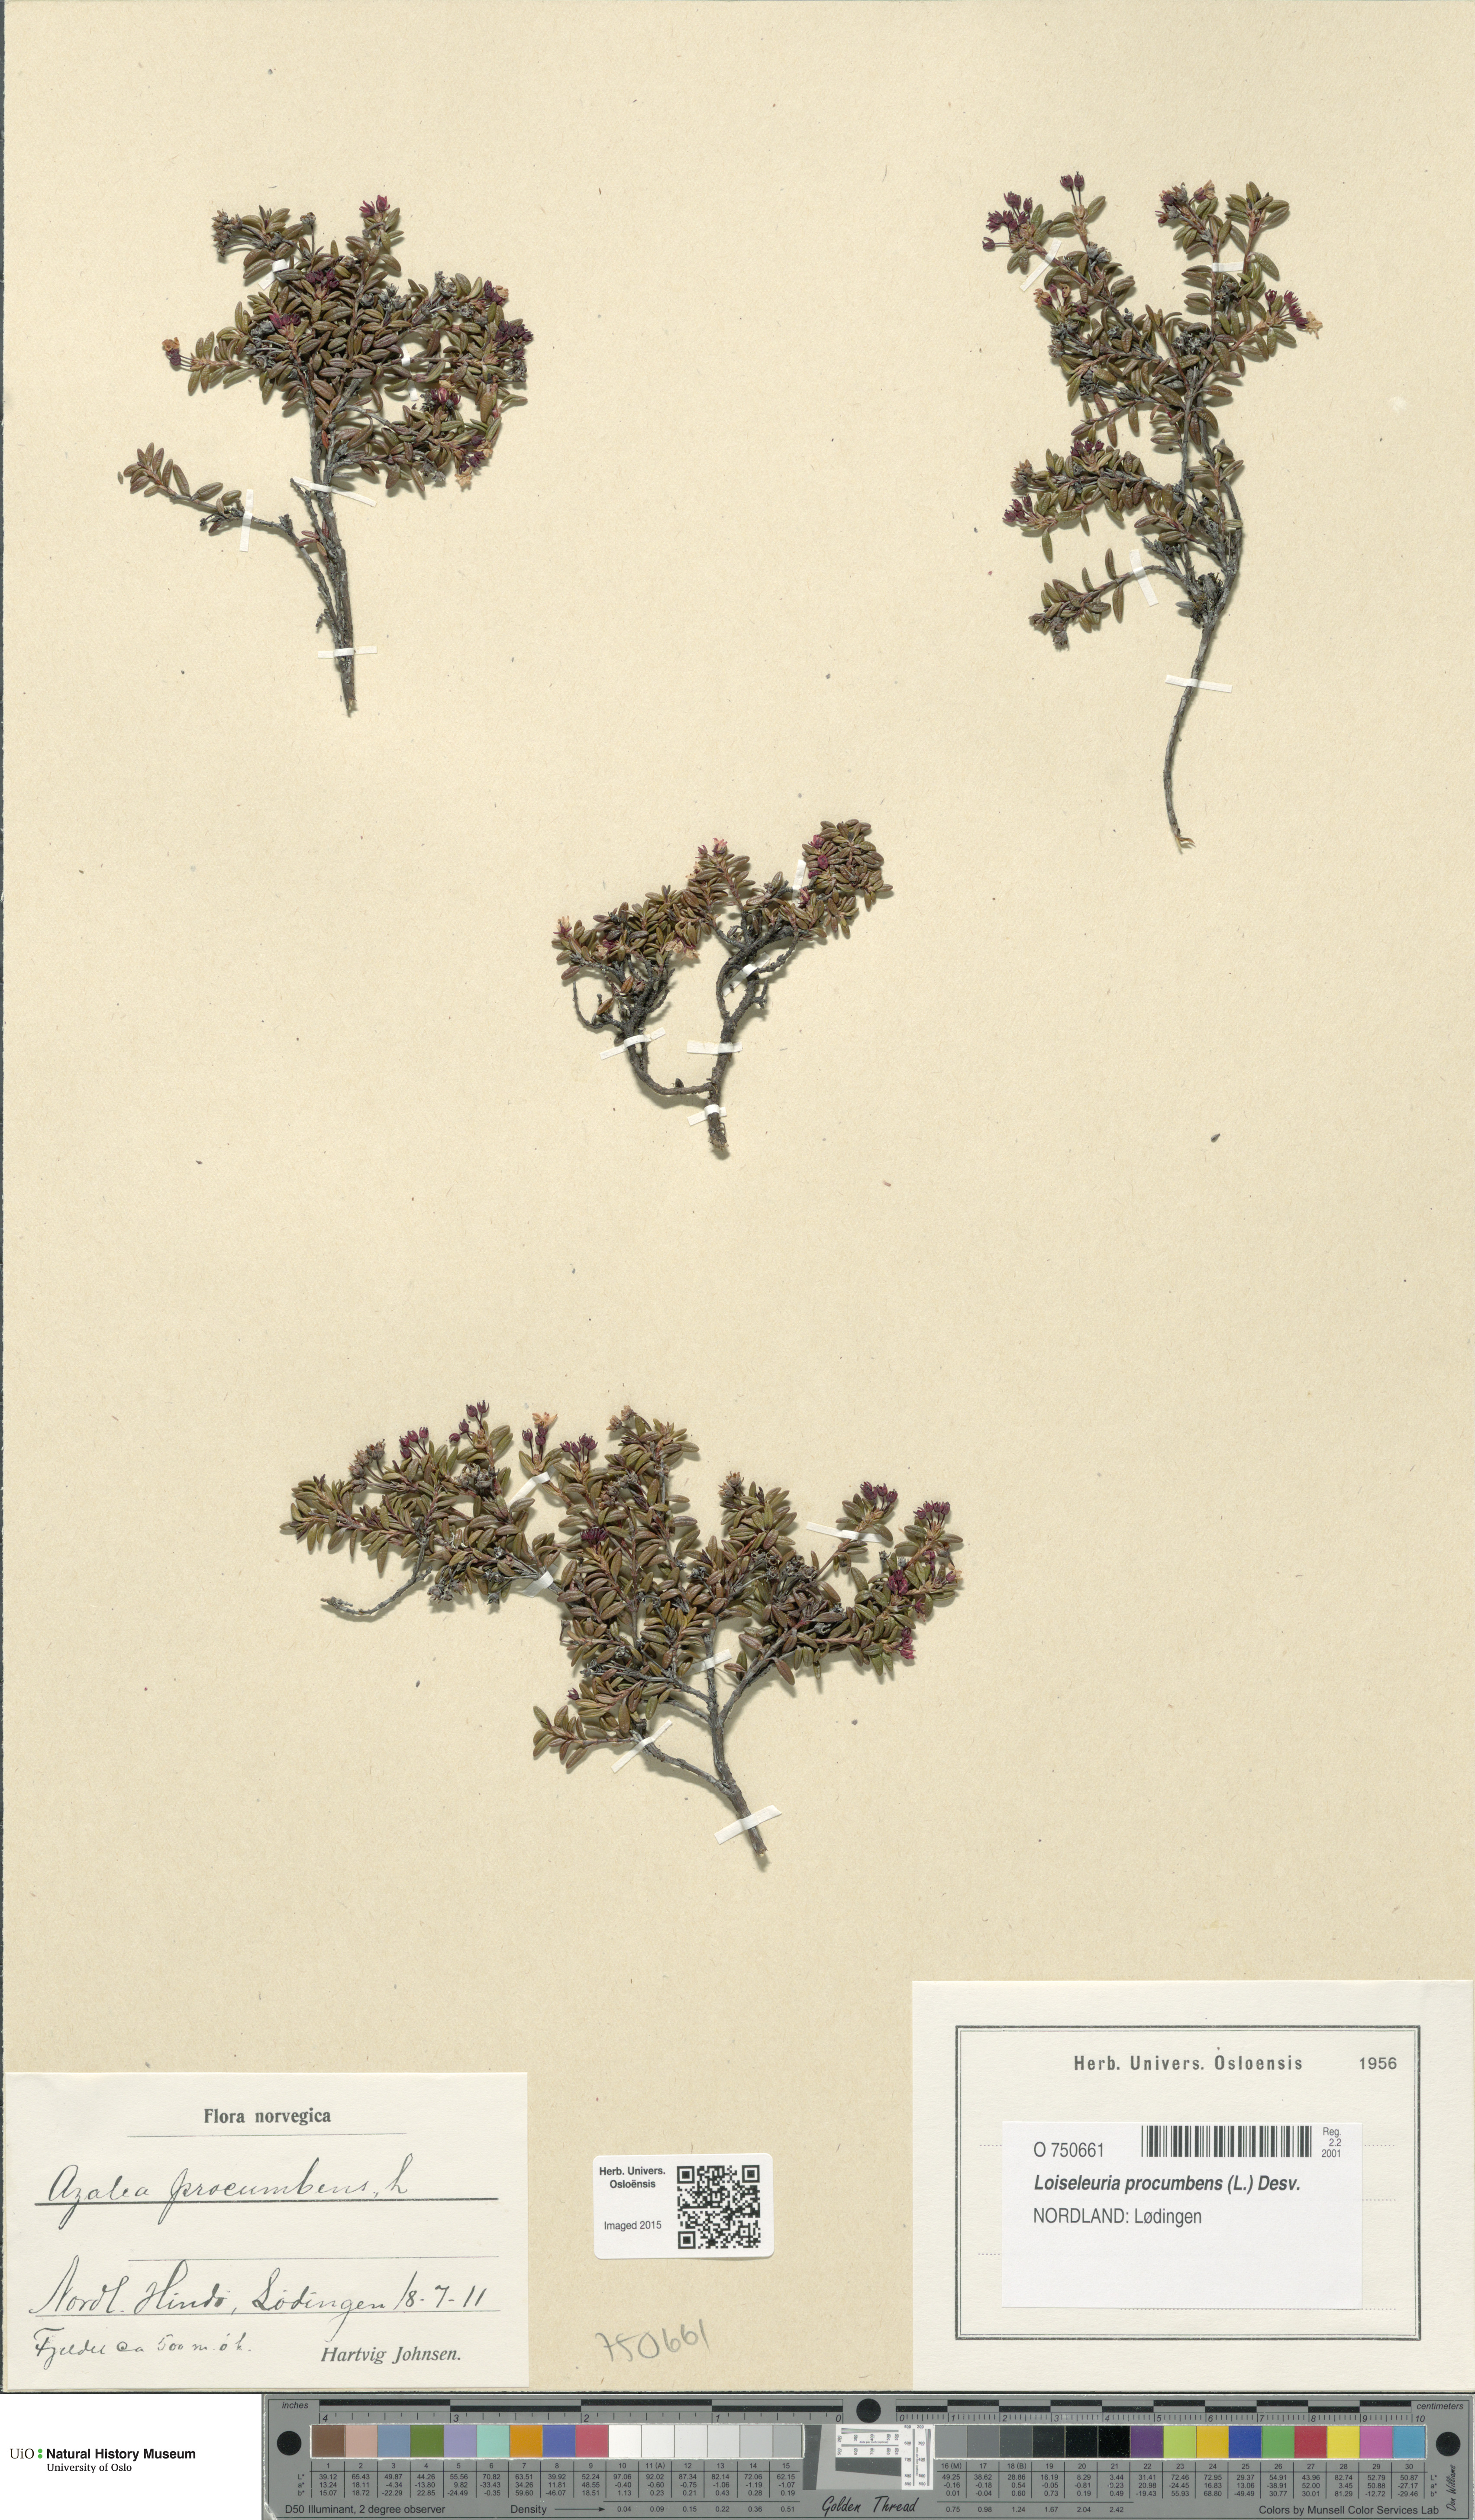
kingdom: Plantae
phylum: Tracheophyta
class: Magnoliopsida
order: Ericales
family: Ericaceae
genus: Kalmia
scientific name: Kalmia procumbens
